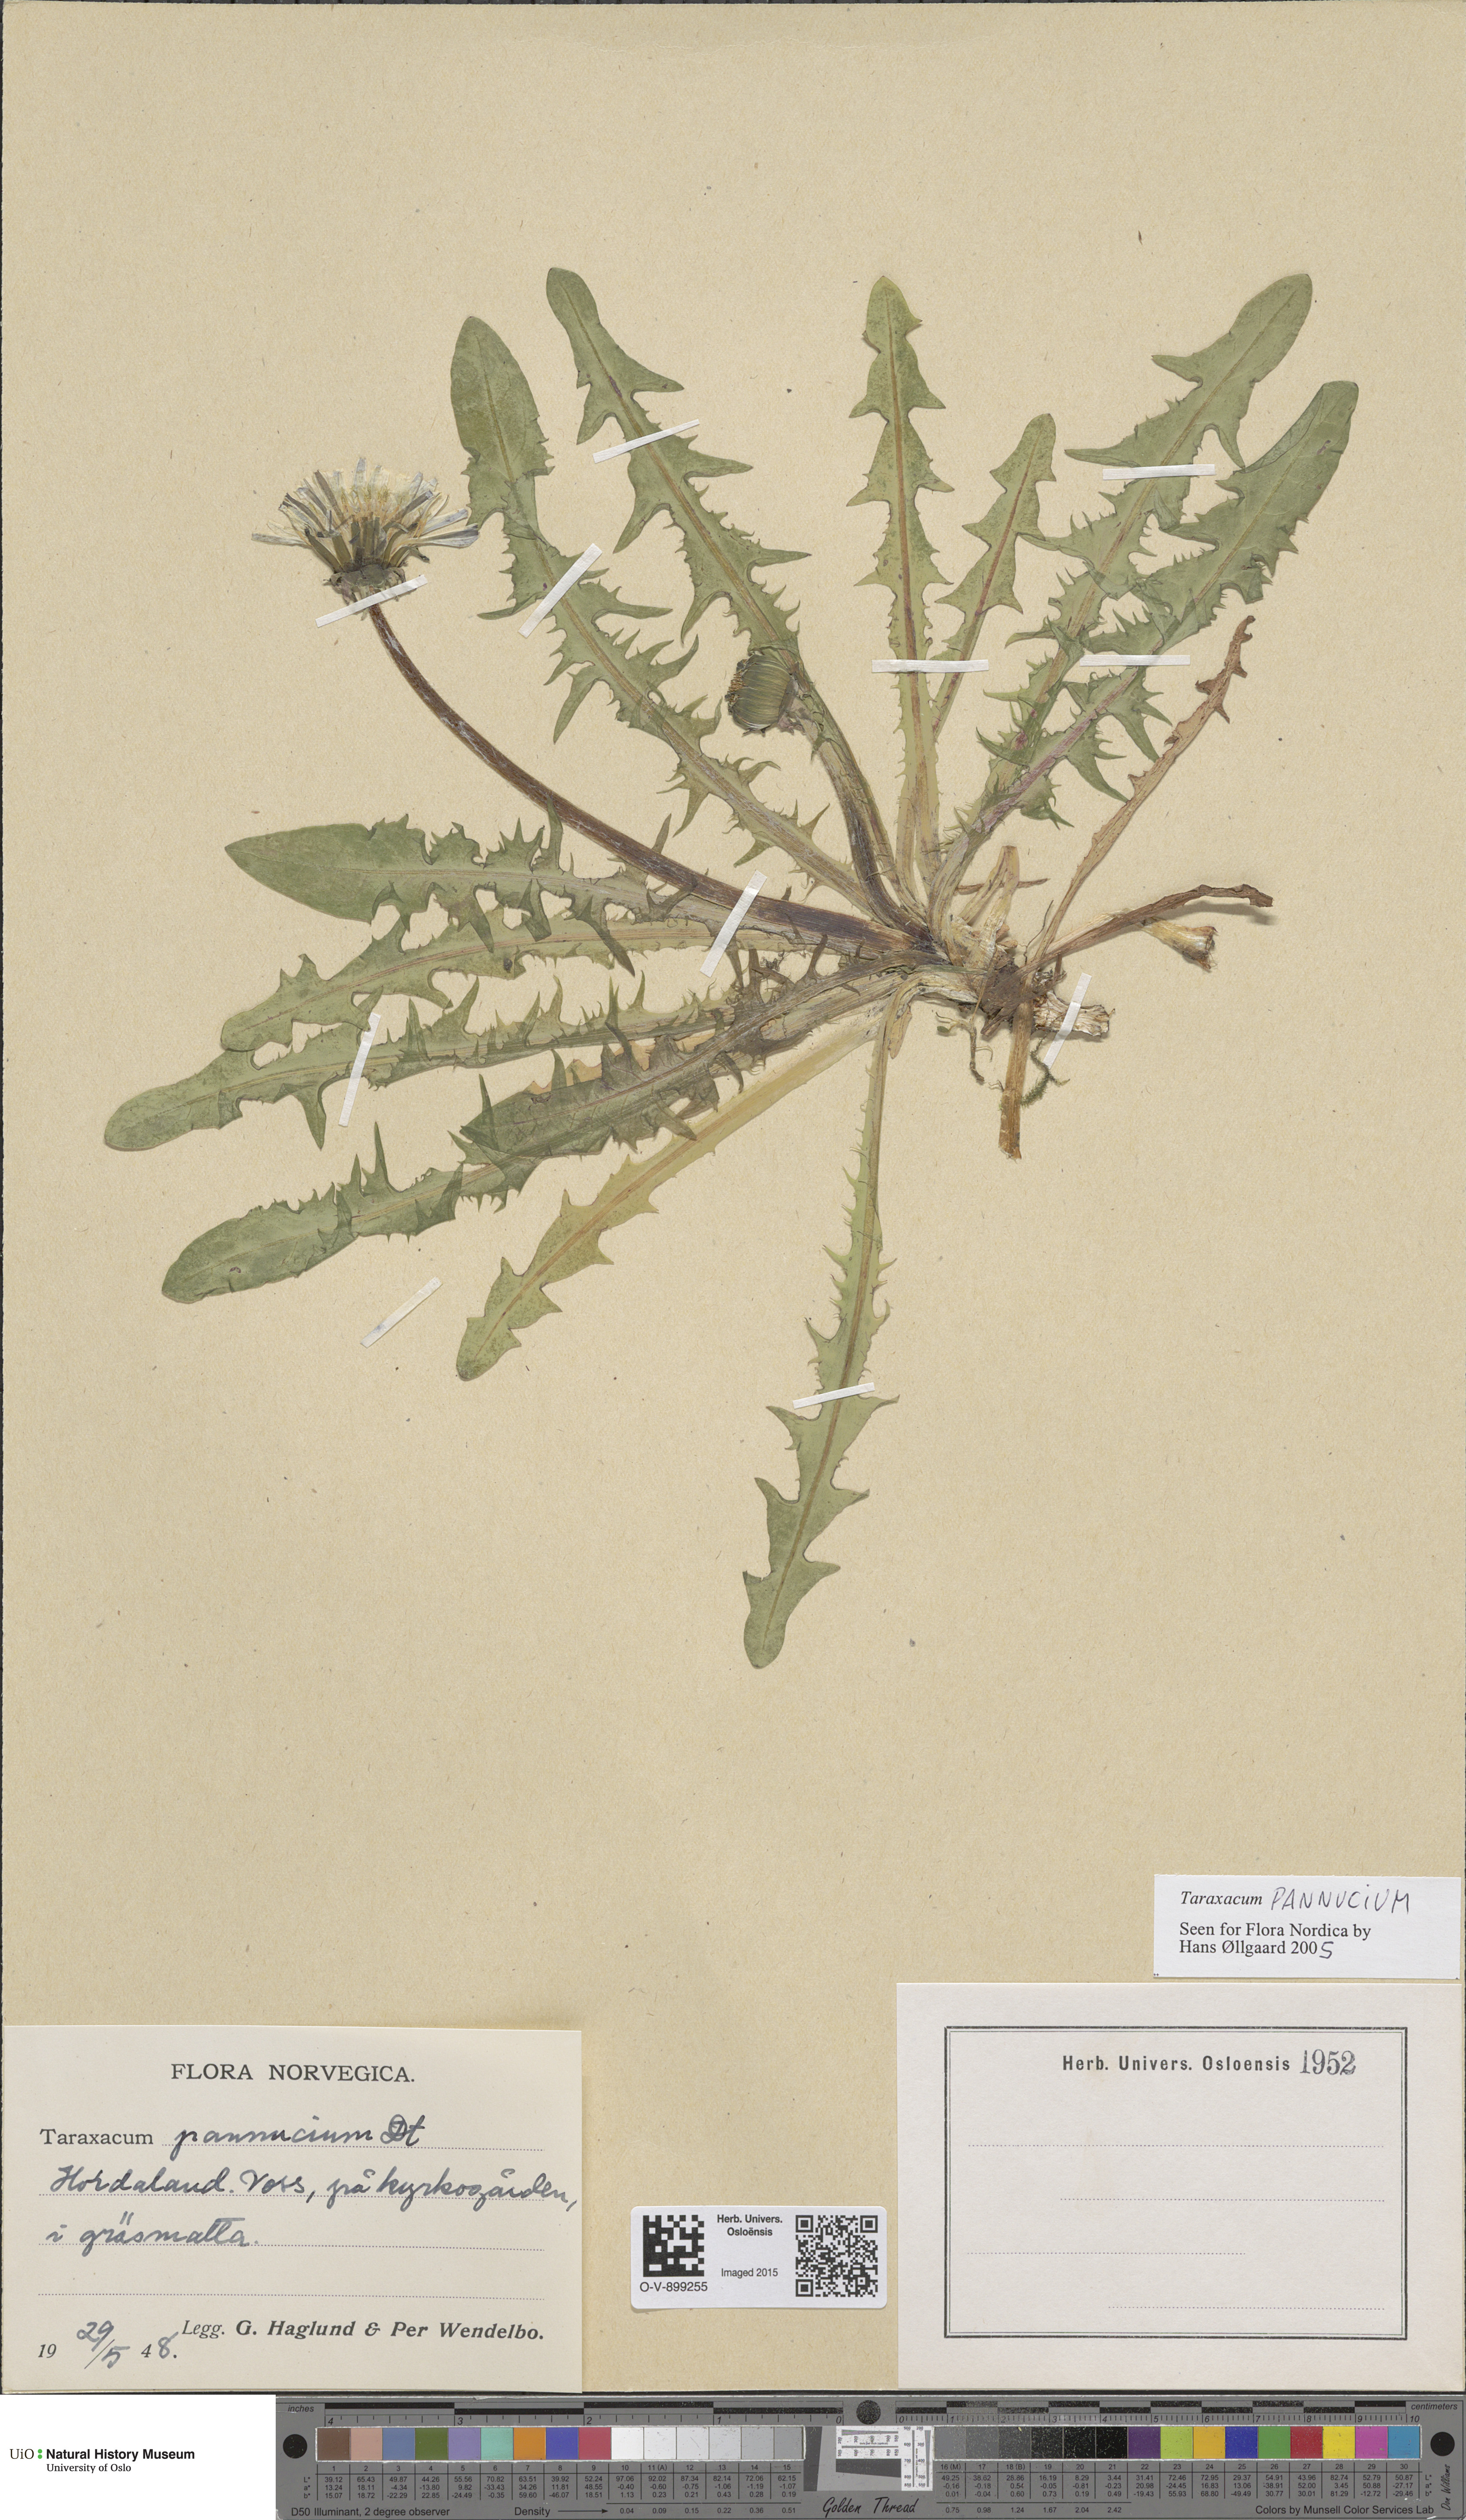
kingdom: Plantae
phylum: Tracheophyta
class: Magnoliopsida
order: Asterales
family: Asteraceae
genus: Taraxacum
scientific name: Taraxacum pannucium
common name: Green-stalked dandelion
